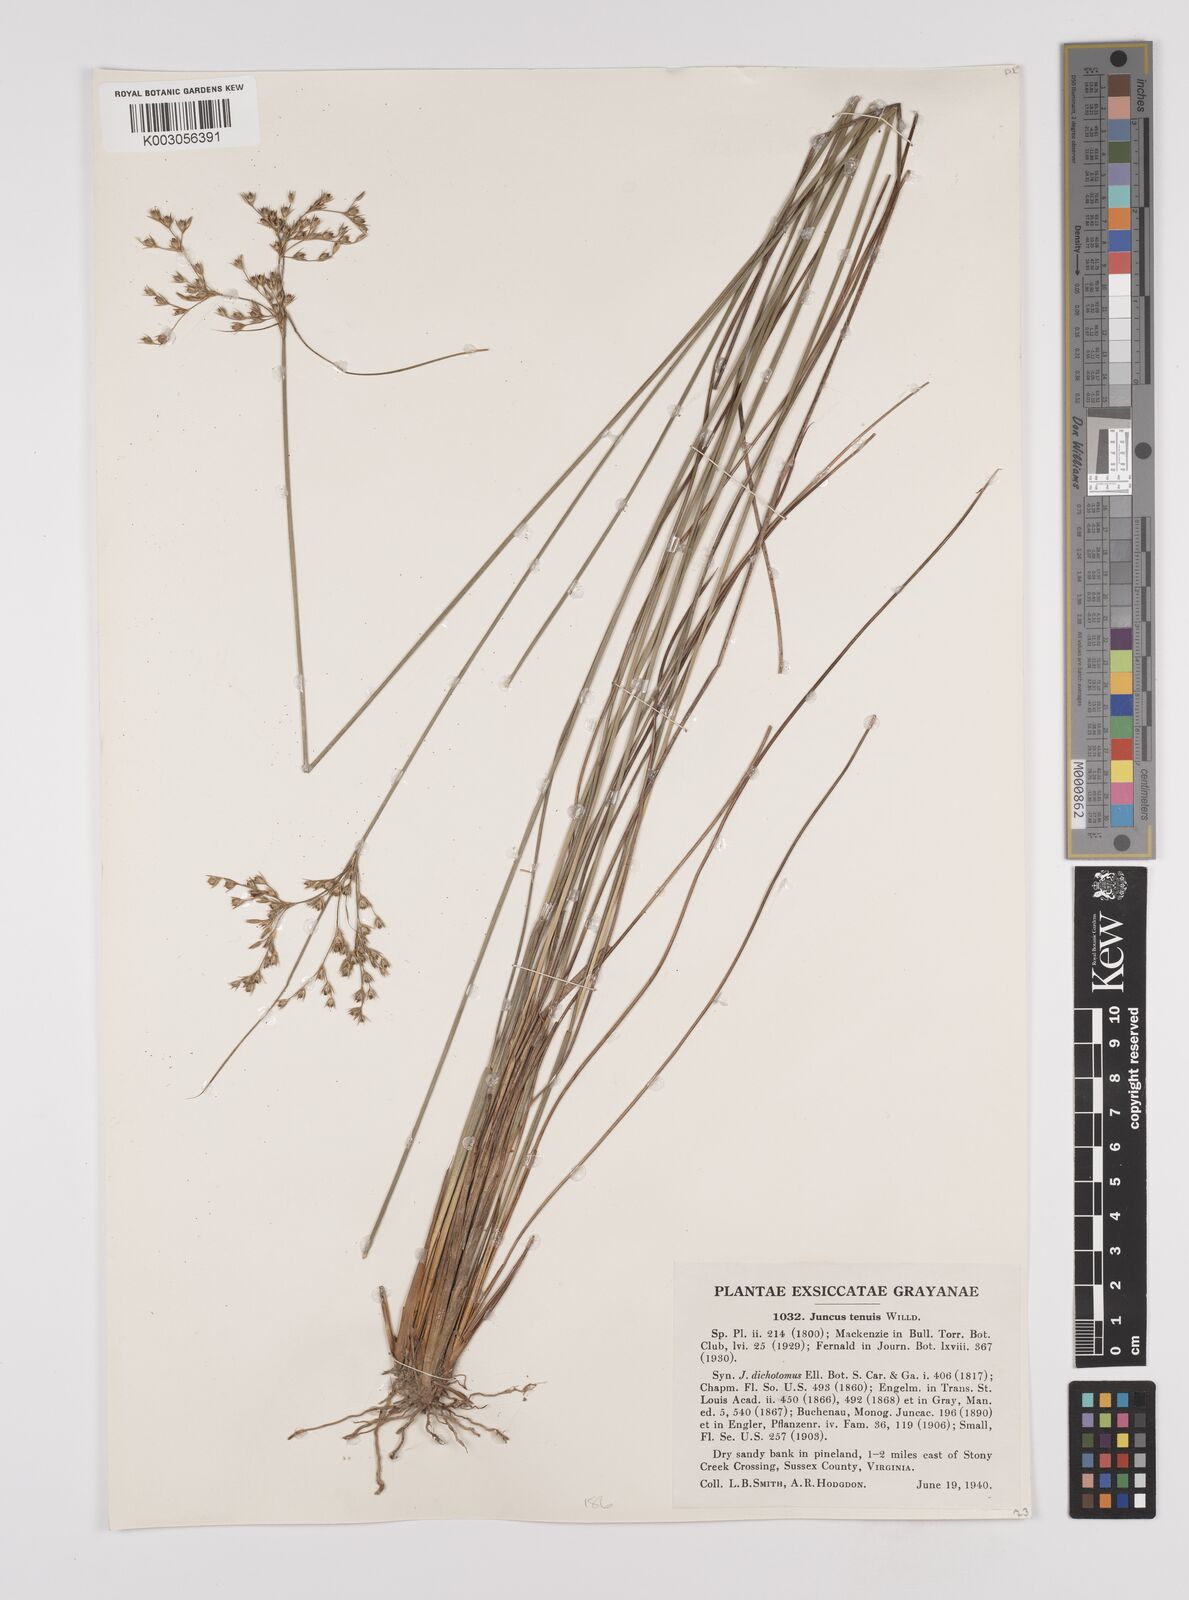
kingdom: Plantae
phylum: Tracheophyta
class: Liliopsida
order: Poales
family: Juncaceae
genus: Juncus
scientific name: Juncus tenuis
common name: Slender rush
